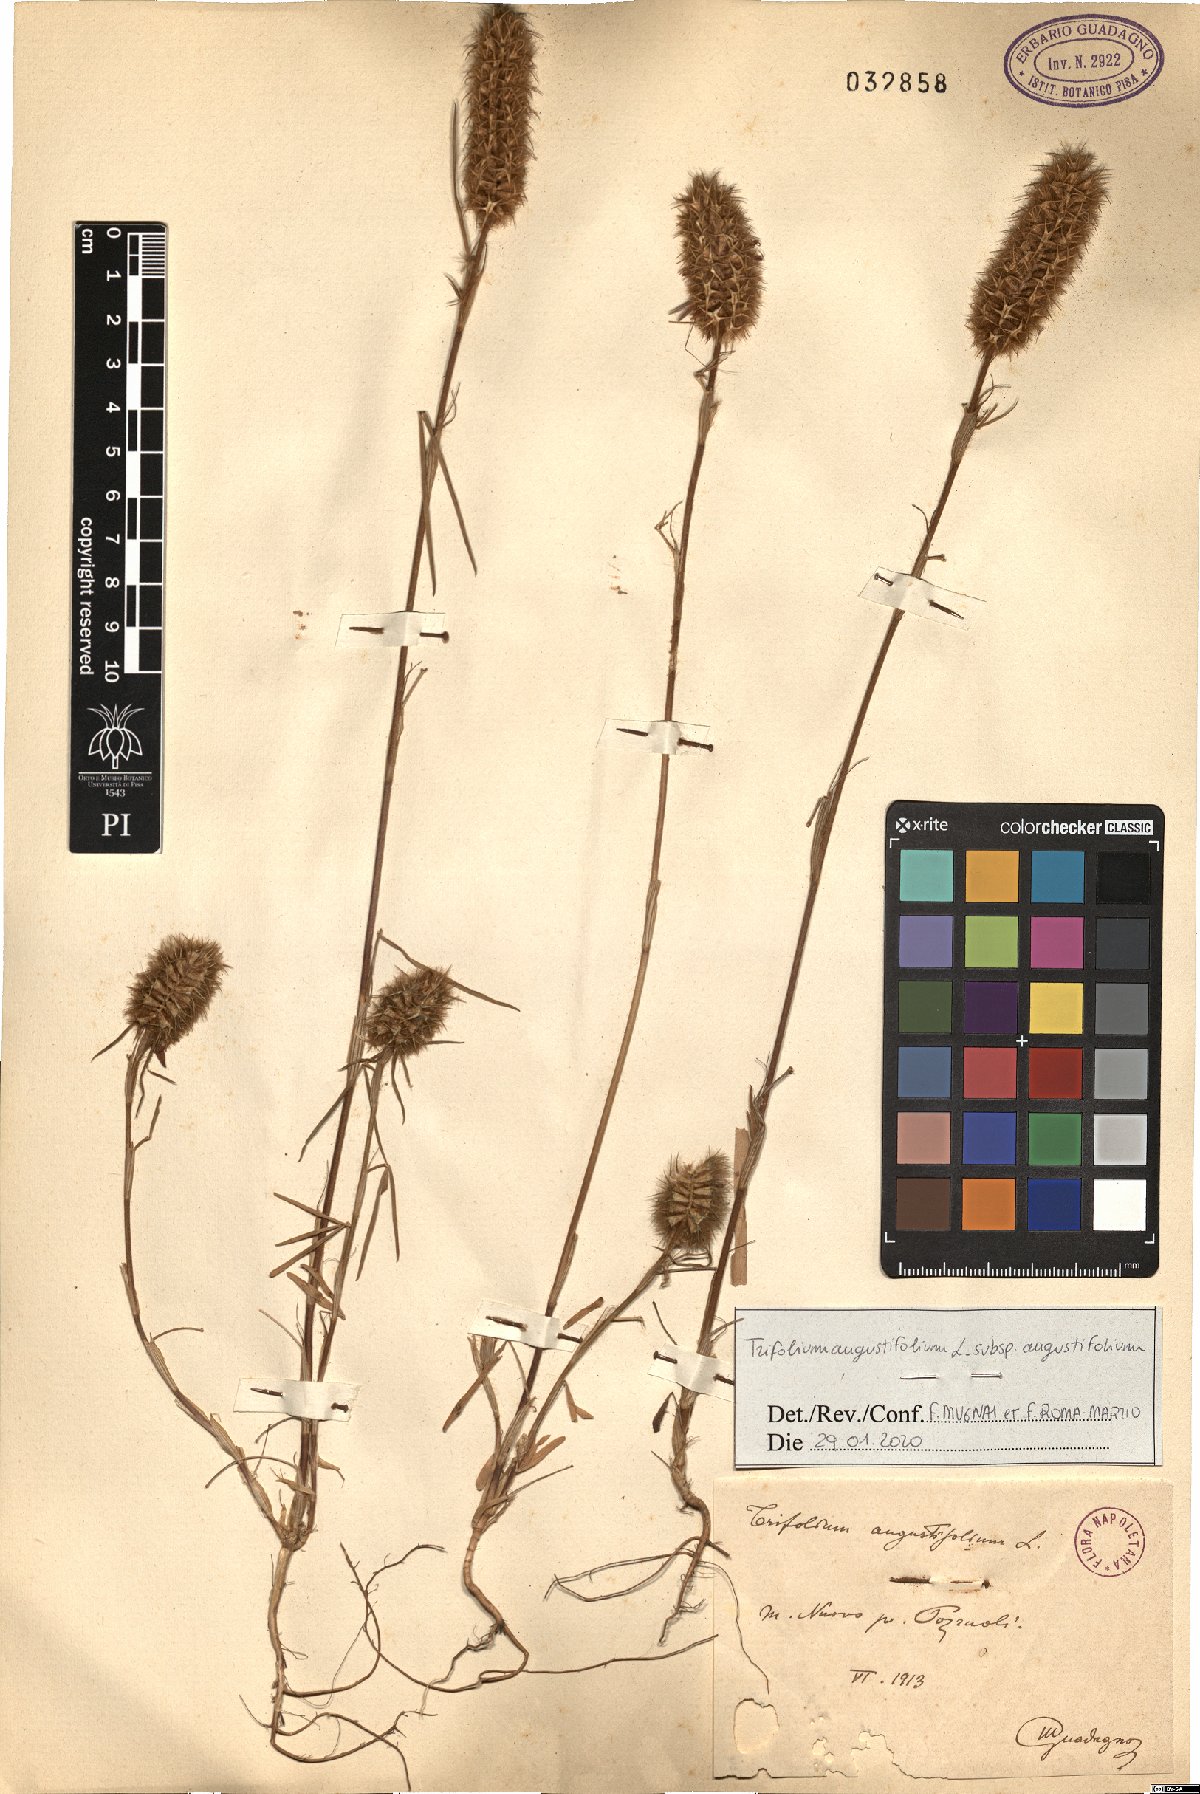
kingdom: Plantae
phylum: Tracheophyta
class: Magnoliopsida
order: Fabales
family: Fabaceae
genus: Trifolium
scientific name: Trifolium angustifolium
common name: Narrow clover
